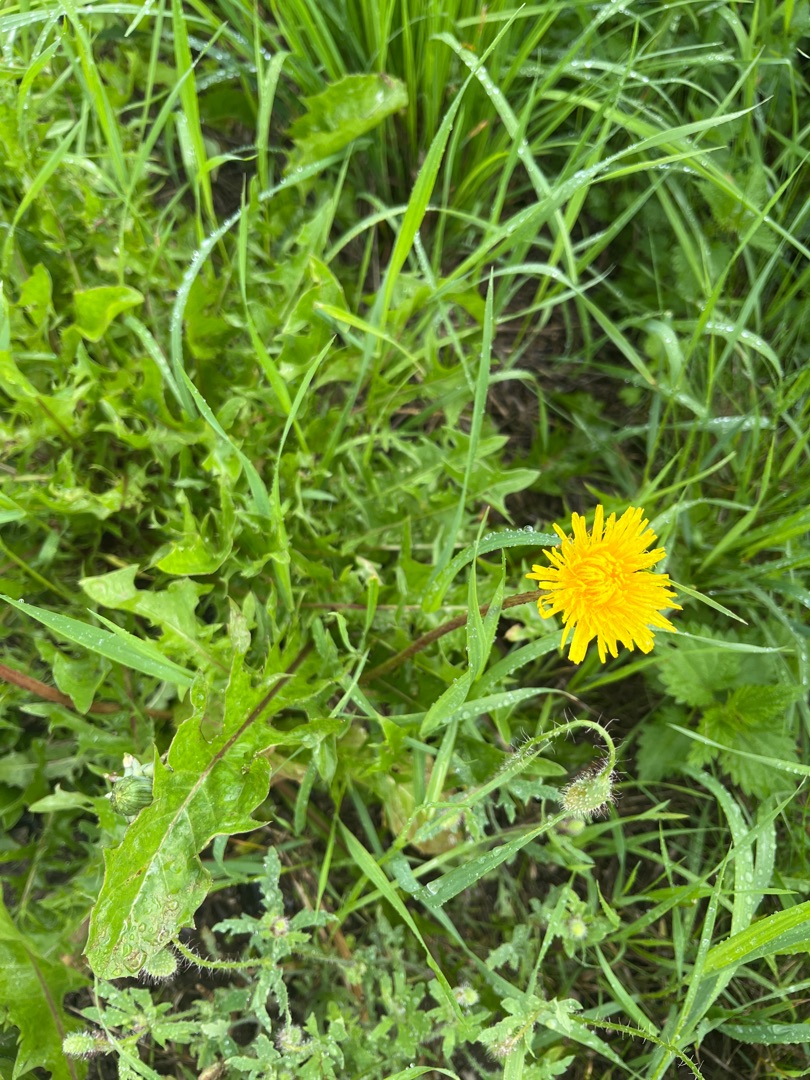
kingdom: Plantae
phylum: Tracheophyta
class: Magnoliopsida
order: Asterales
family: Asteraceae
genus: Taraxacum
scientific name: Taraxacum
